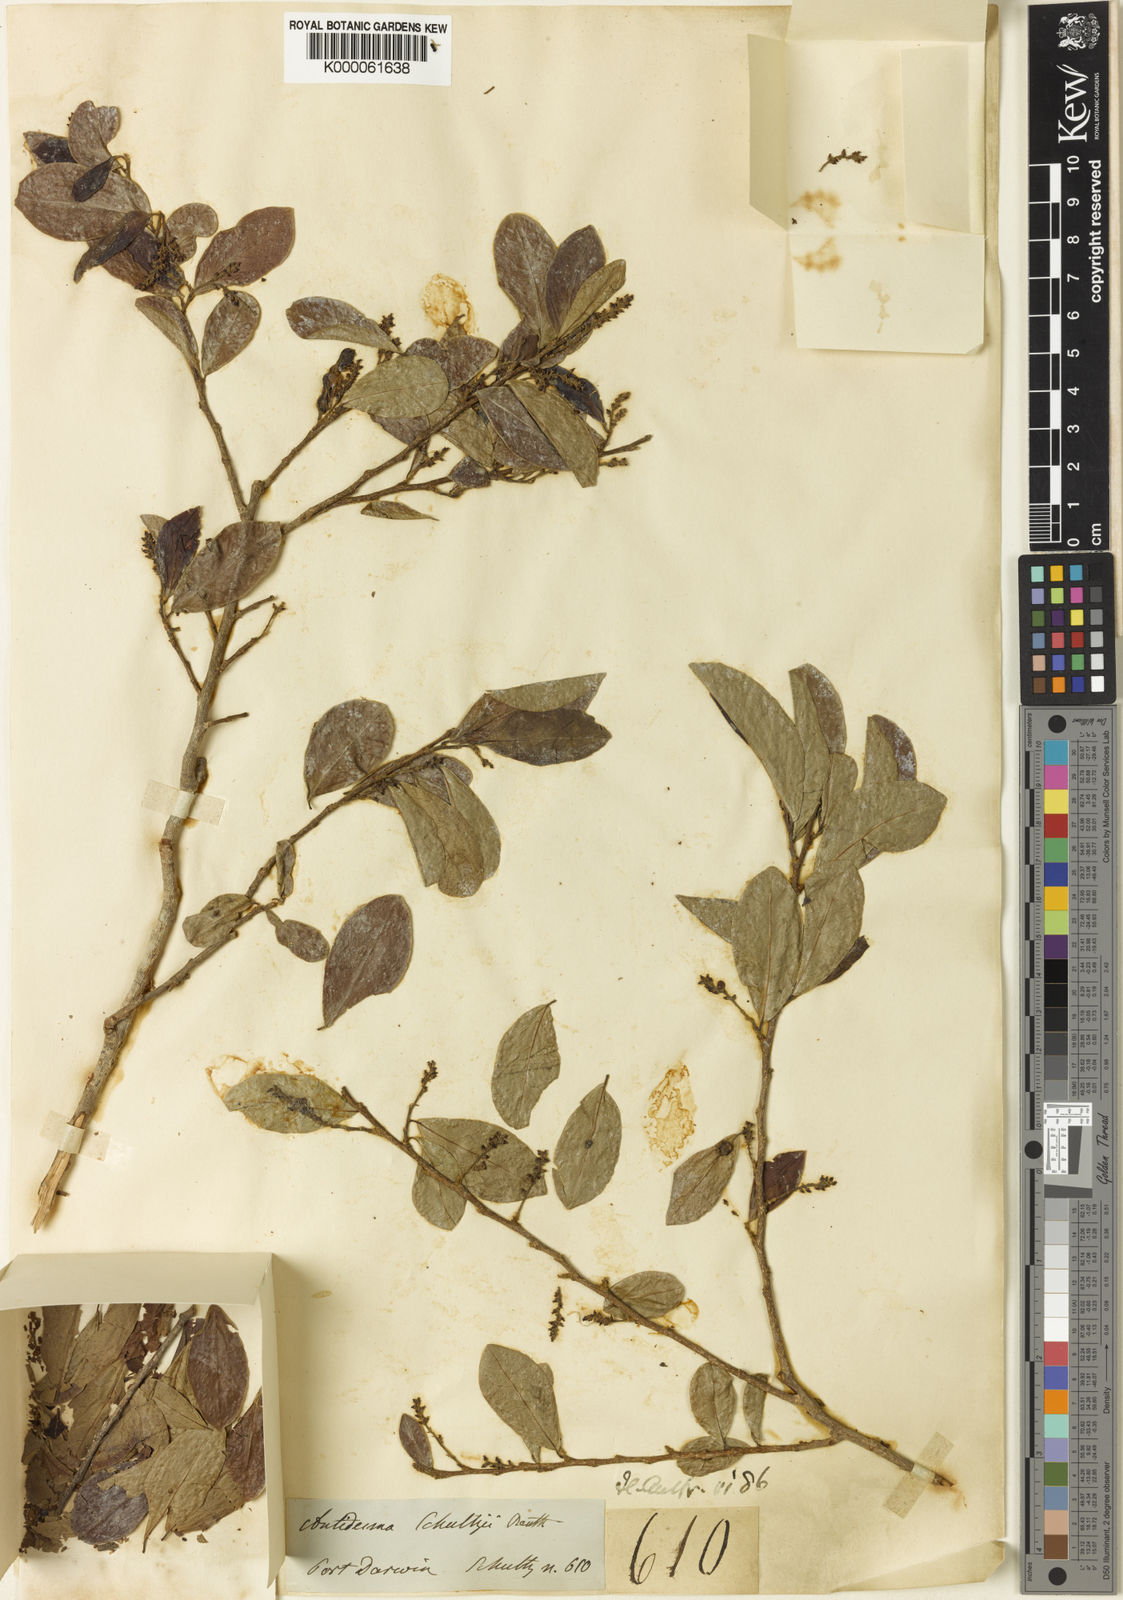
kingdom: Plantae
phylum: Tracheophyta
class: Magnoliopsida
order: Malpighiales
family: Phyllanthaceae
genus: Antidesma
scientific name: Antidesma ghaesembilla
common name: Black currant-tree
